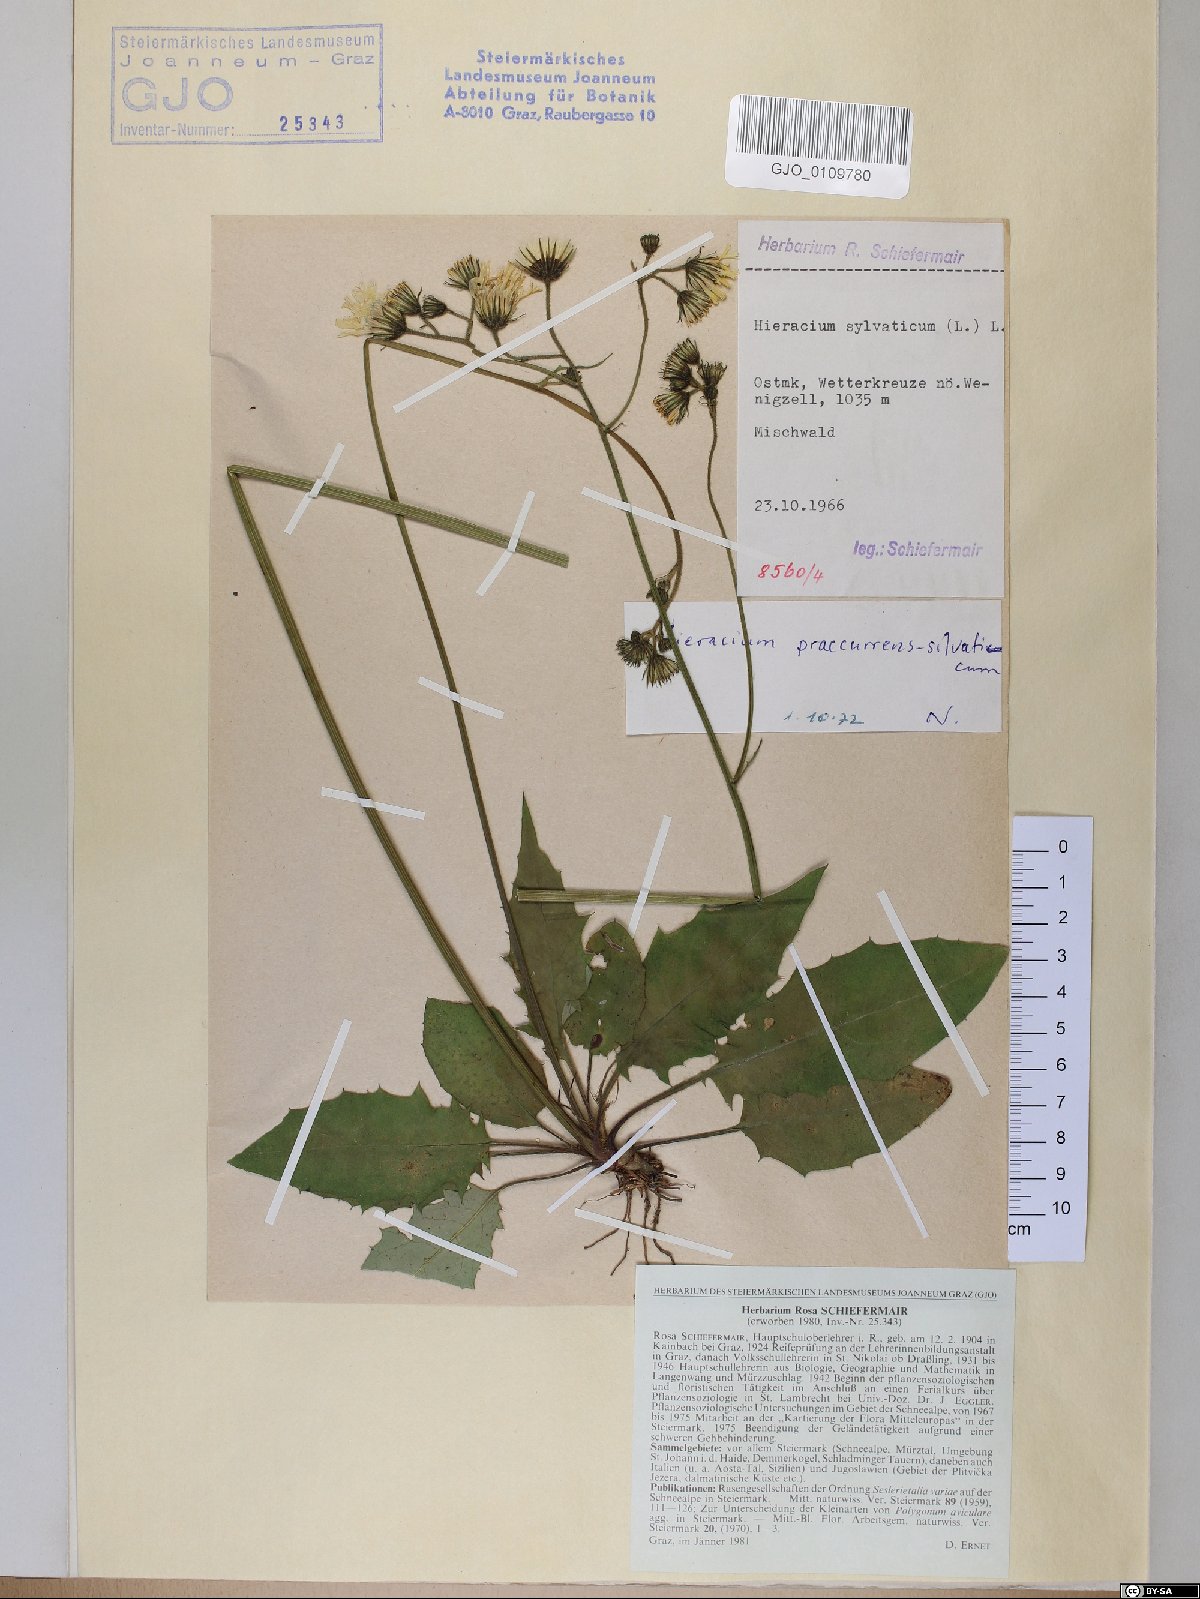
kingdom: Plantae
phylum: Tracheophyta
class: Magnoliopsida
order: Asterales
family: Asteraceae
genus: Hieracium
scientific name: Hieracium rotundatum
